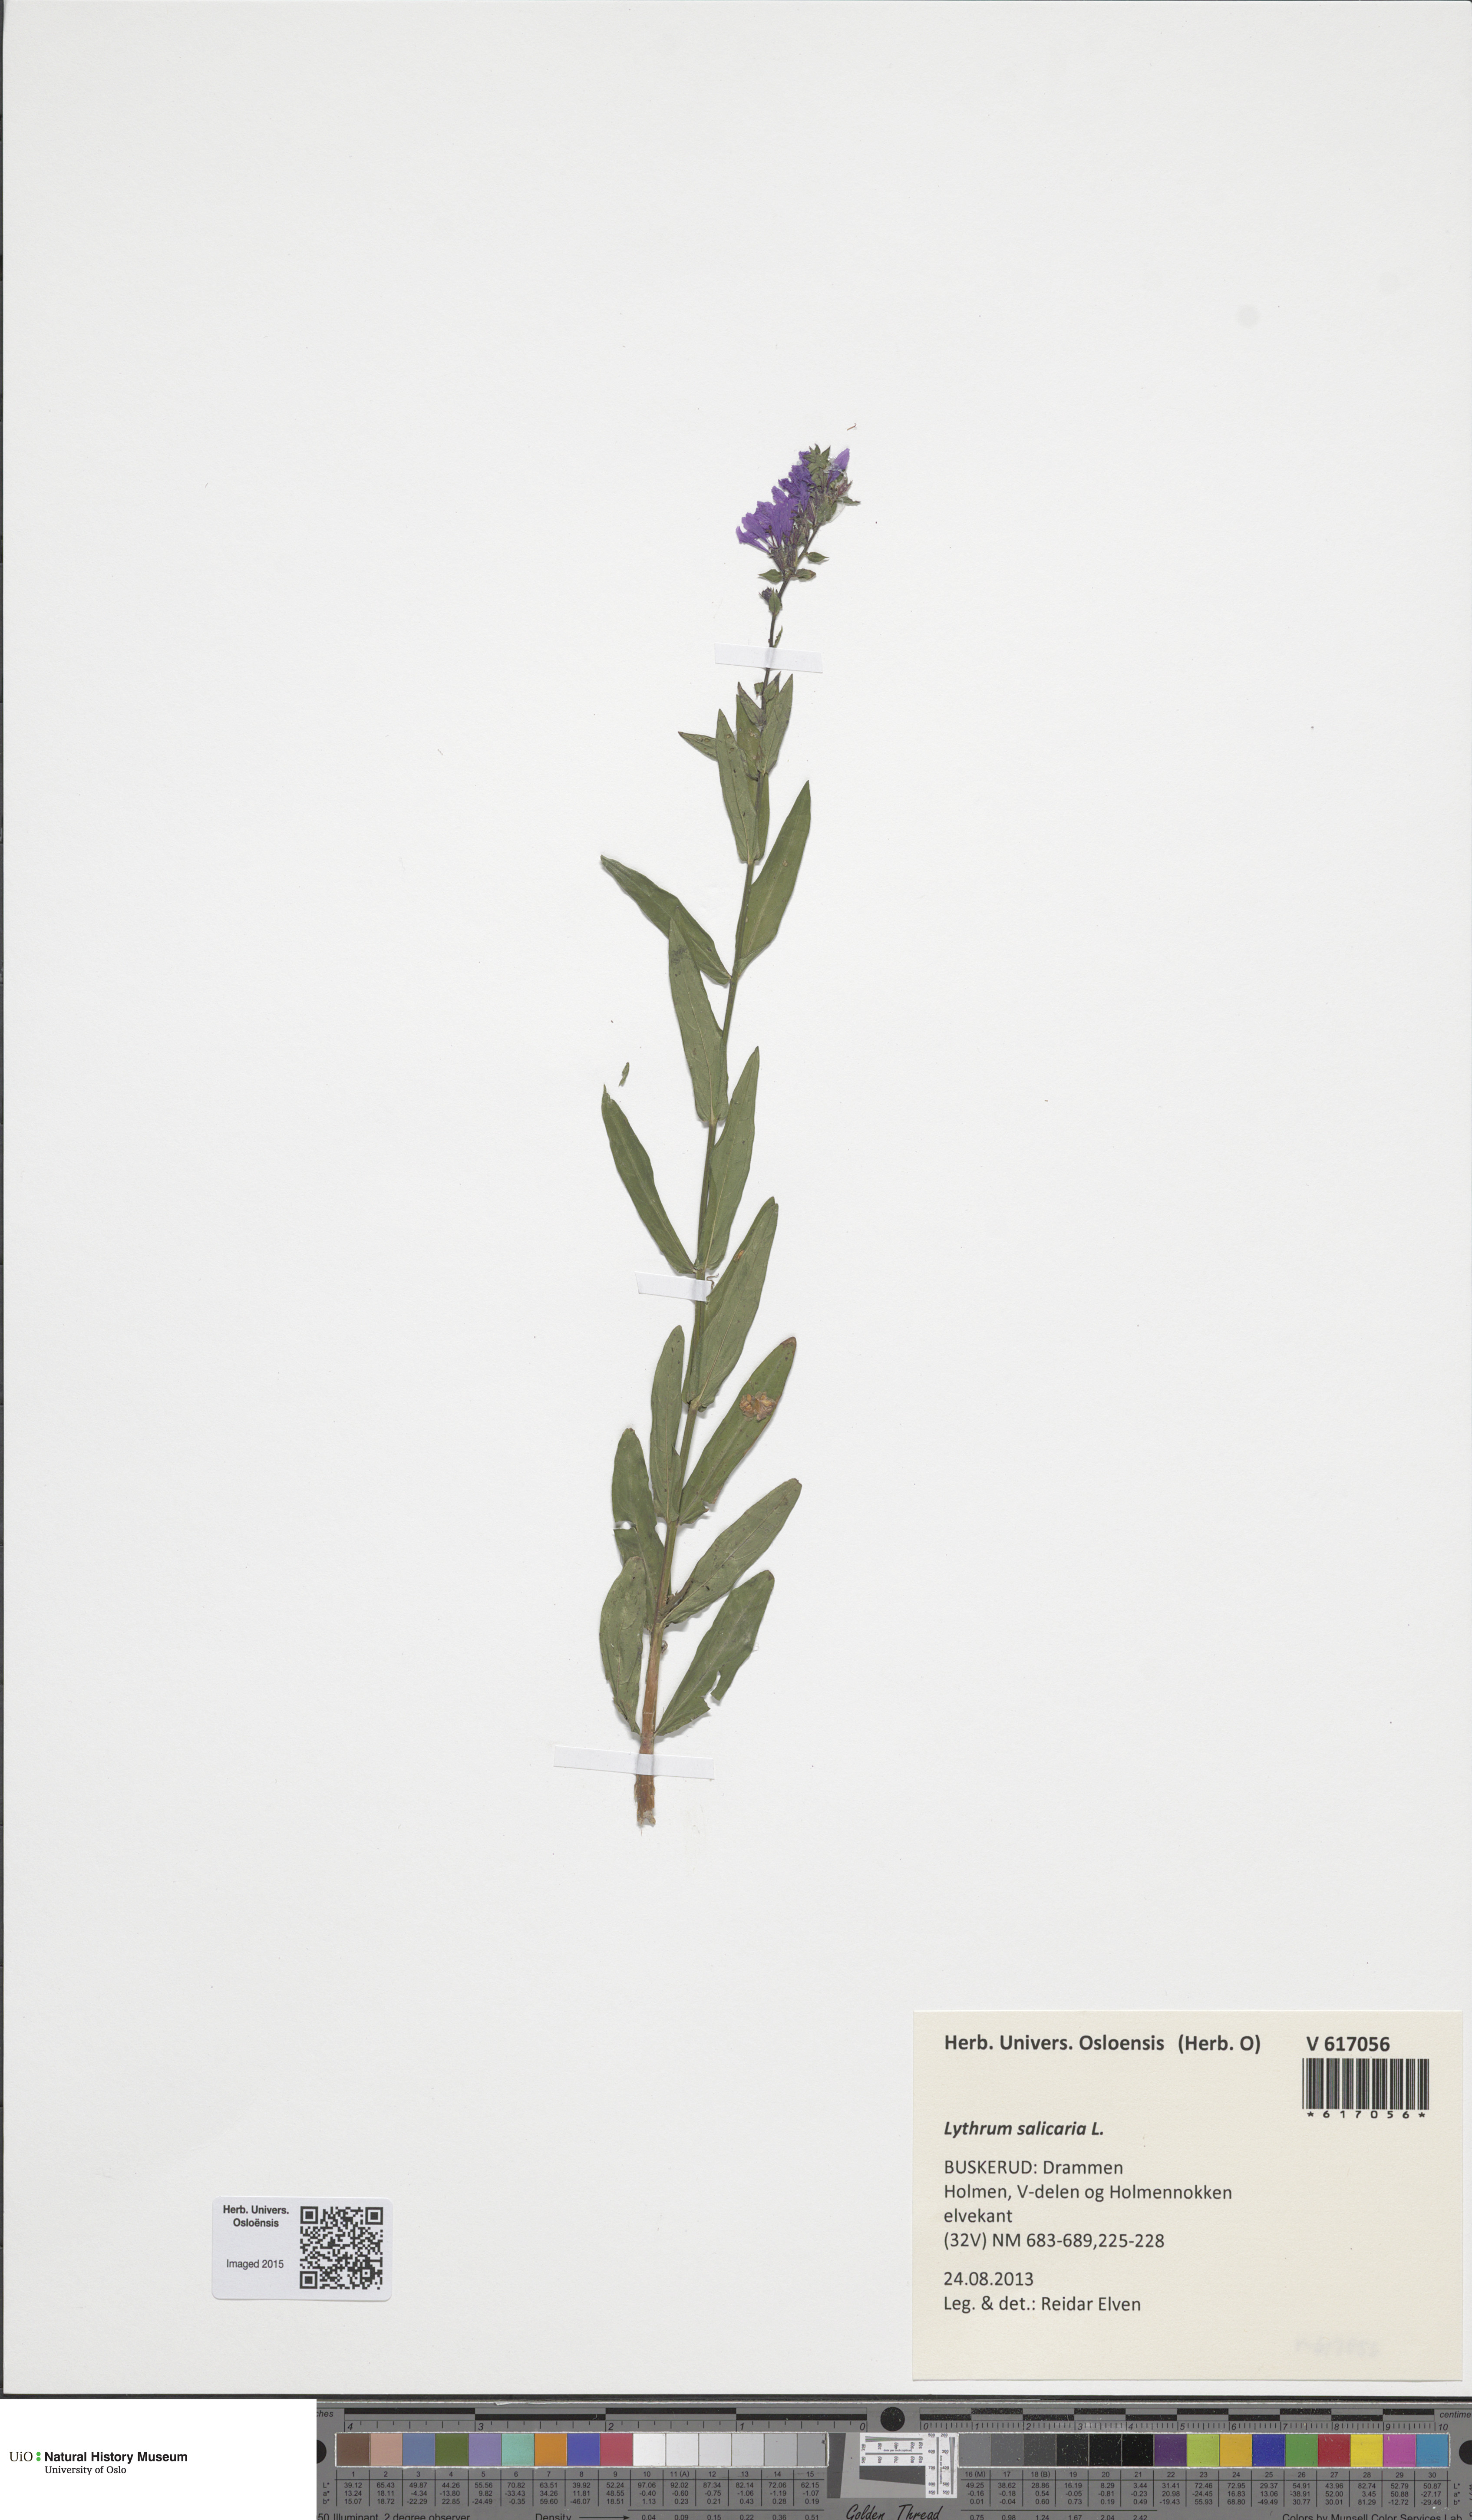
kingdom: Plantae
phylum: Tracheophyta
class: Magnoliopsida
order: Myrtales
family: Lythraceae
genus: Lythrum
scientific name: Lythrum salicaria
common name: Purple loosestrife
